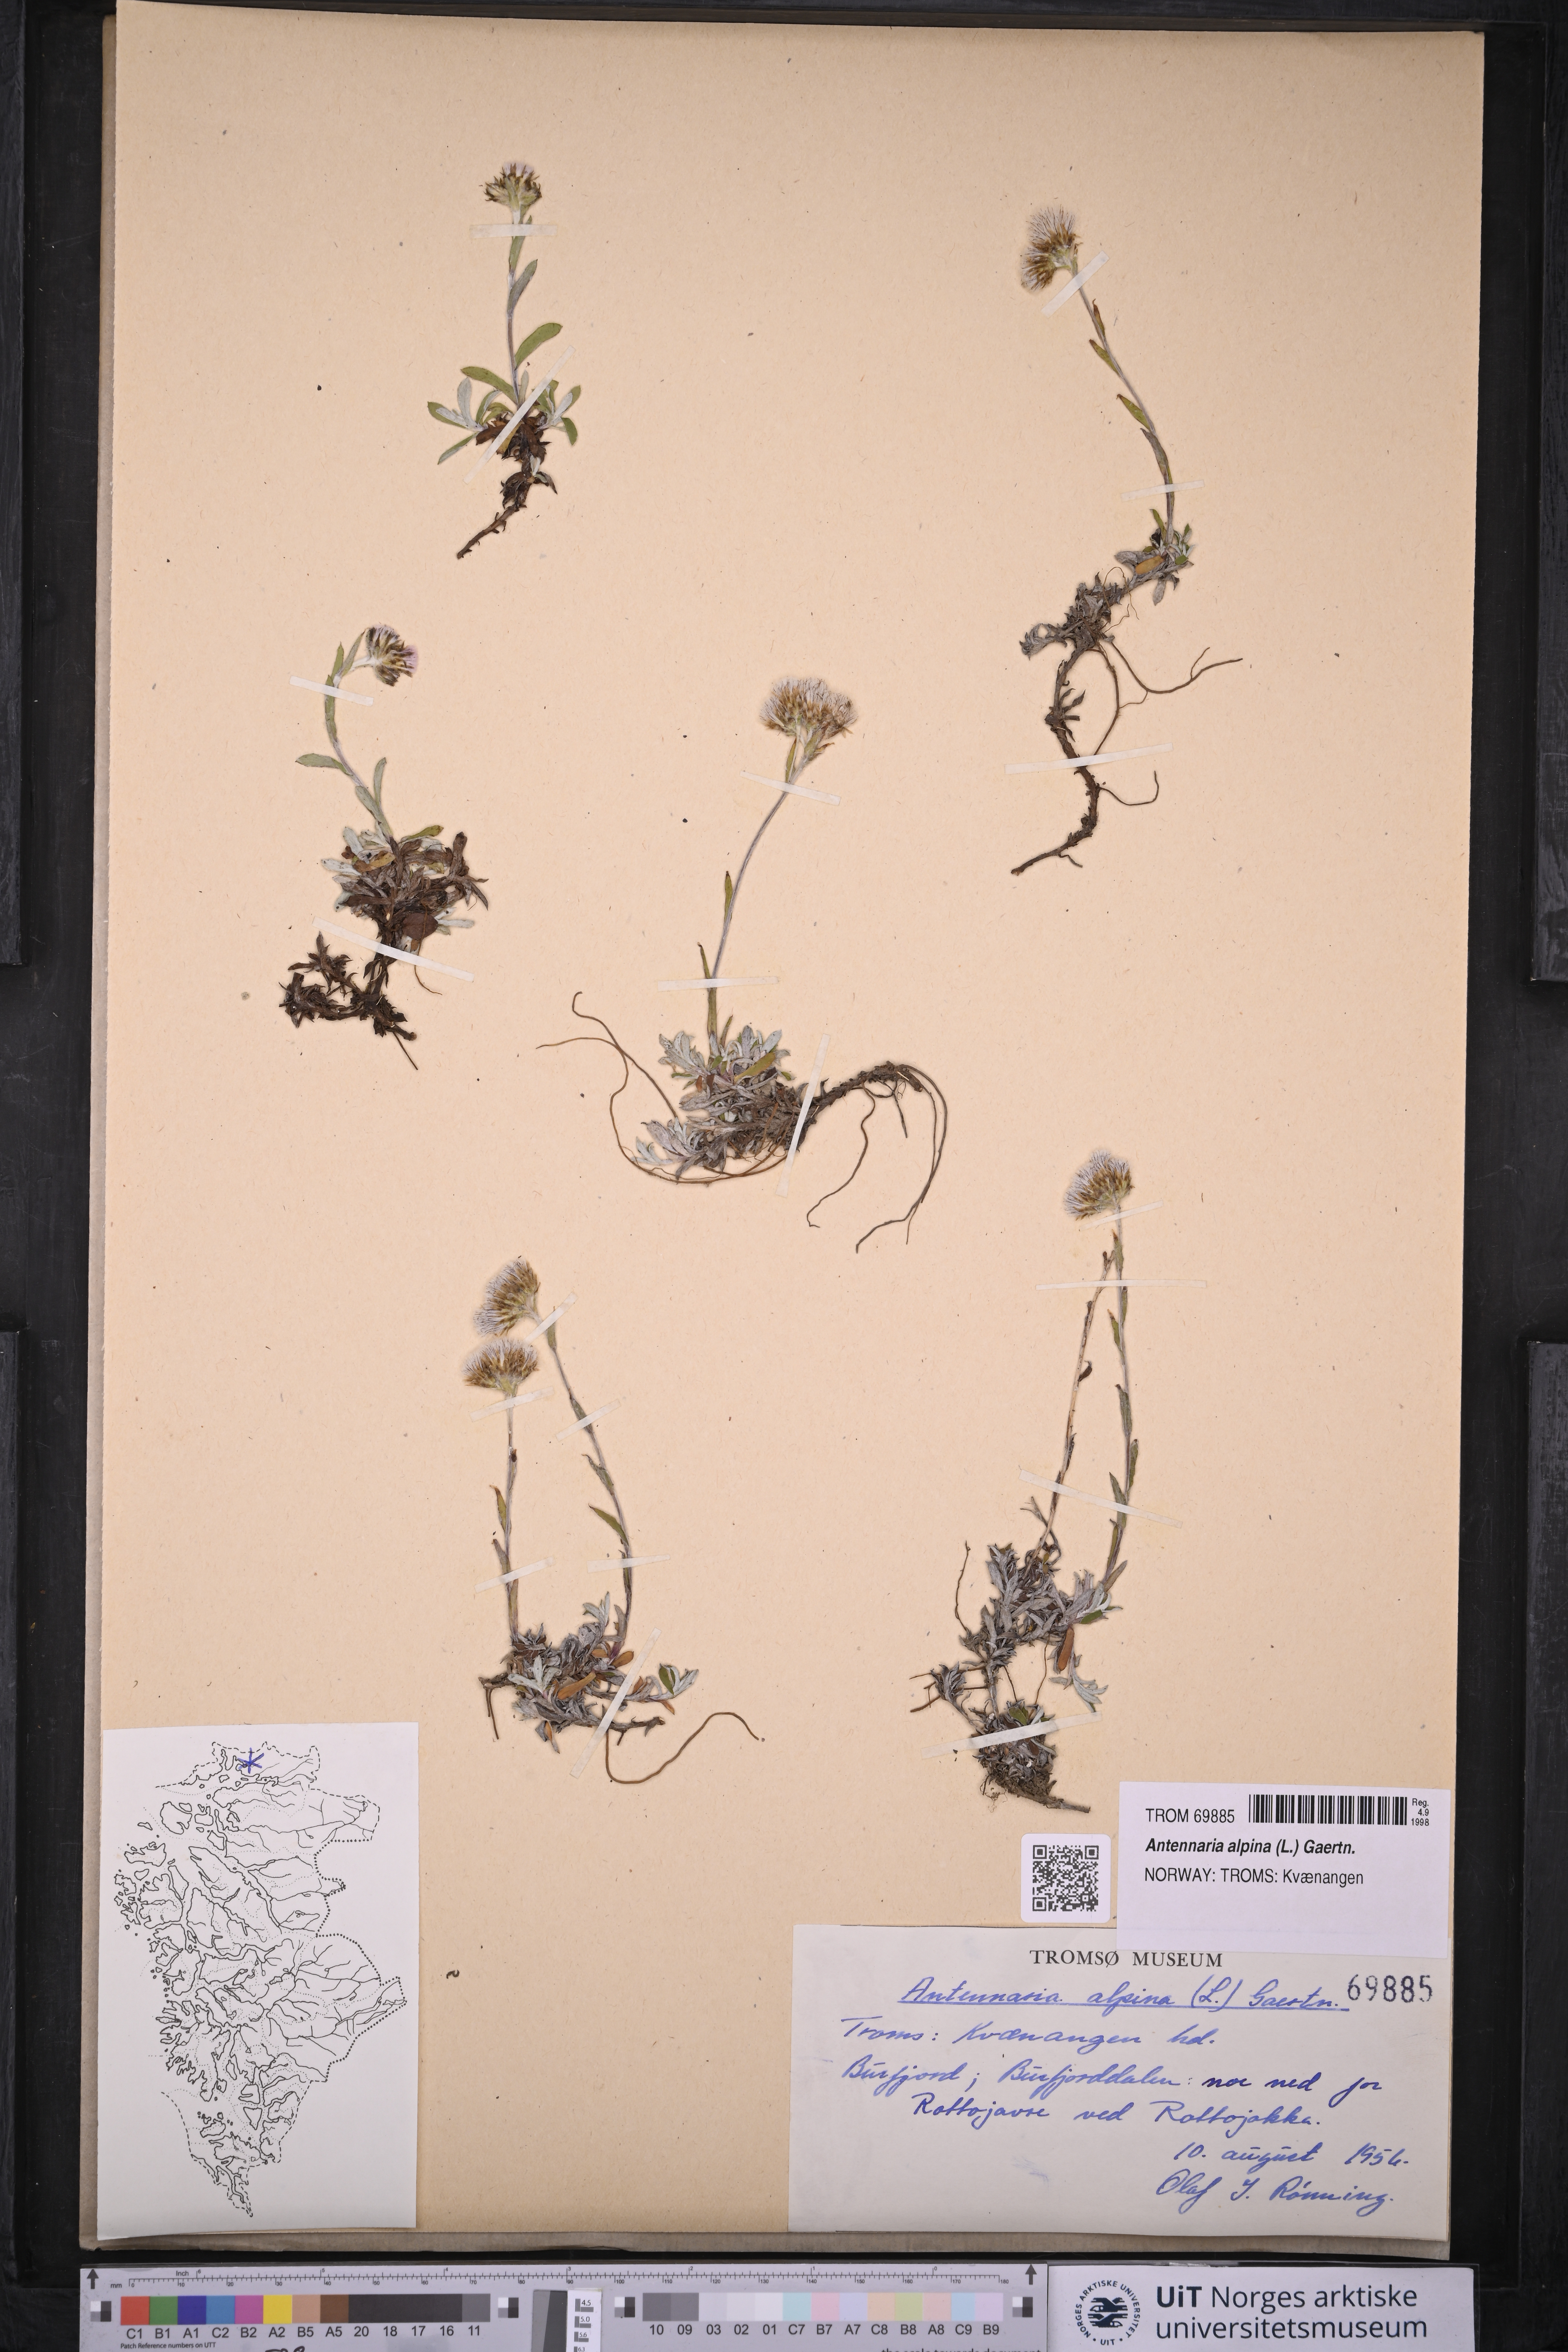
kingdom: Plantae
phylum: Tracheophyta
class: Magnoliopsida
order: Asterales
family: Asteraceae
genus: Antennaria
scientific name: Antennaria alpina
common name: Alpine pussytoes
